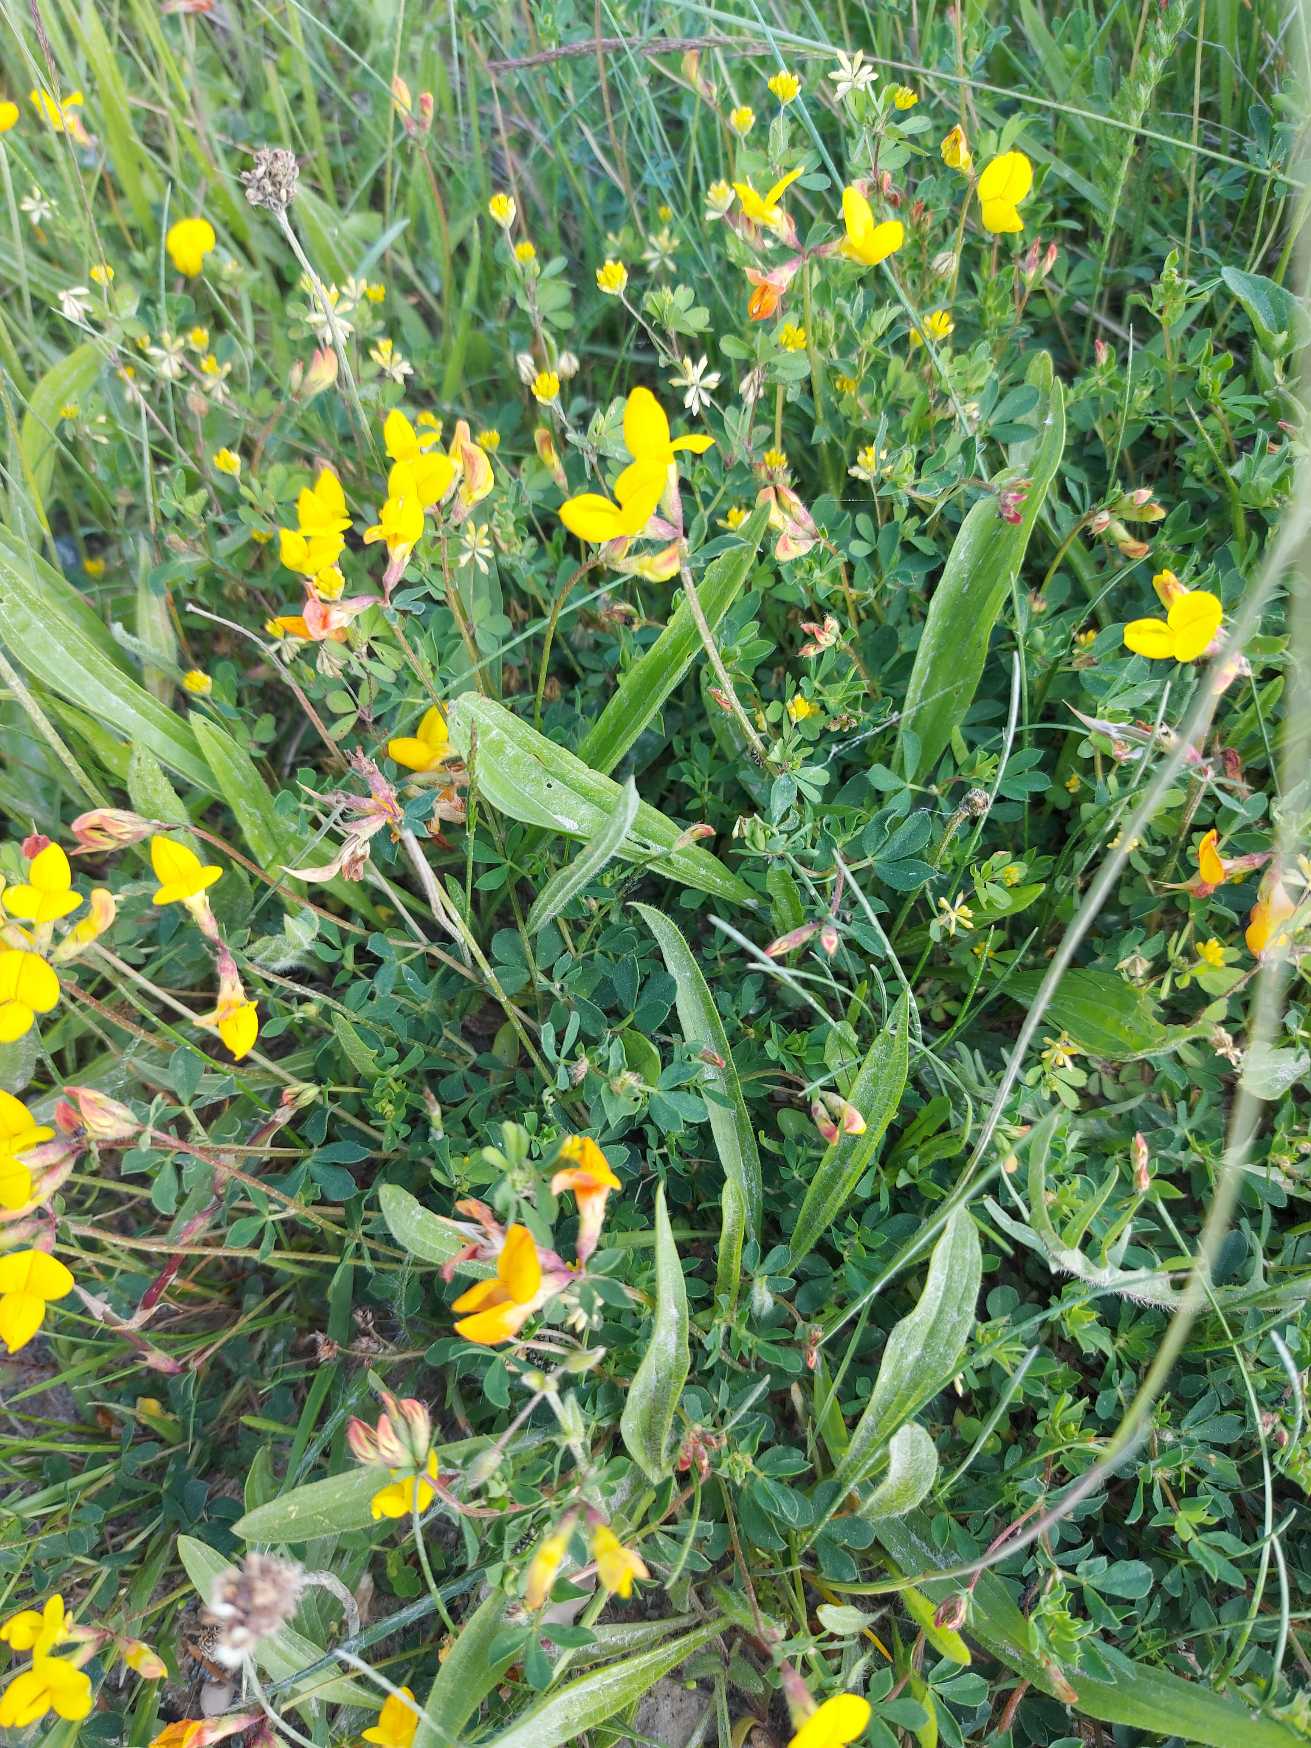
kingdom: Plantae
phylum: Tracheophyta
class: Magnoliopsida
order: Fabales
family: Fabaceae
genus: Lotus
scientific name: Lotus corniculatus
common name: Almindelig kællingetand
